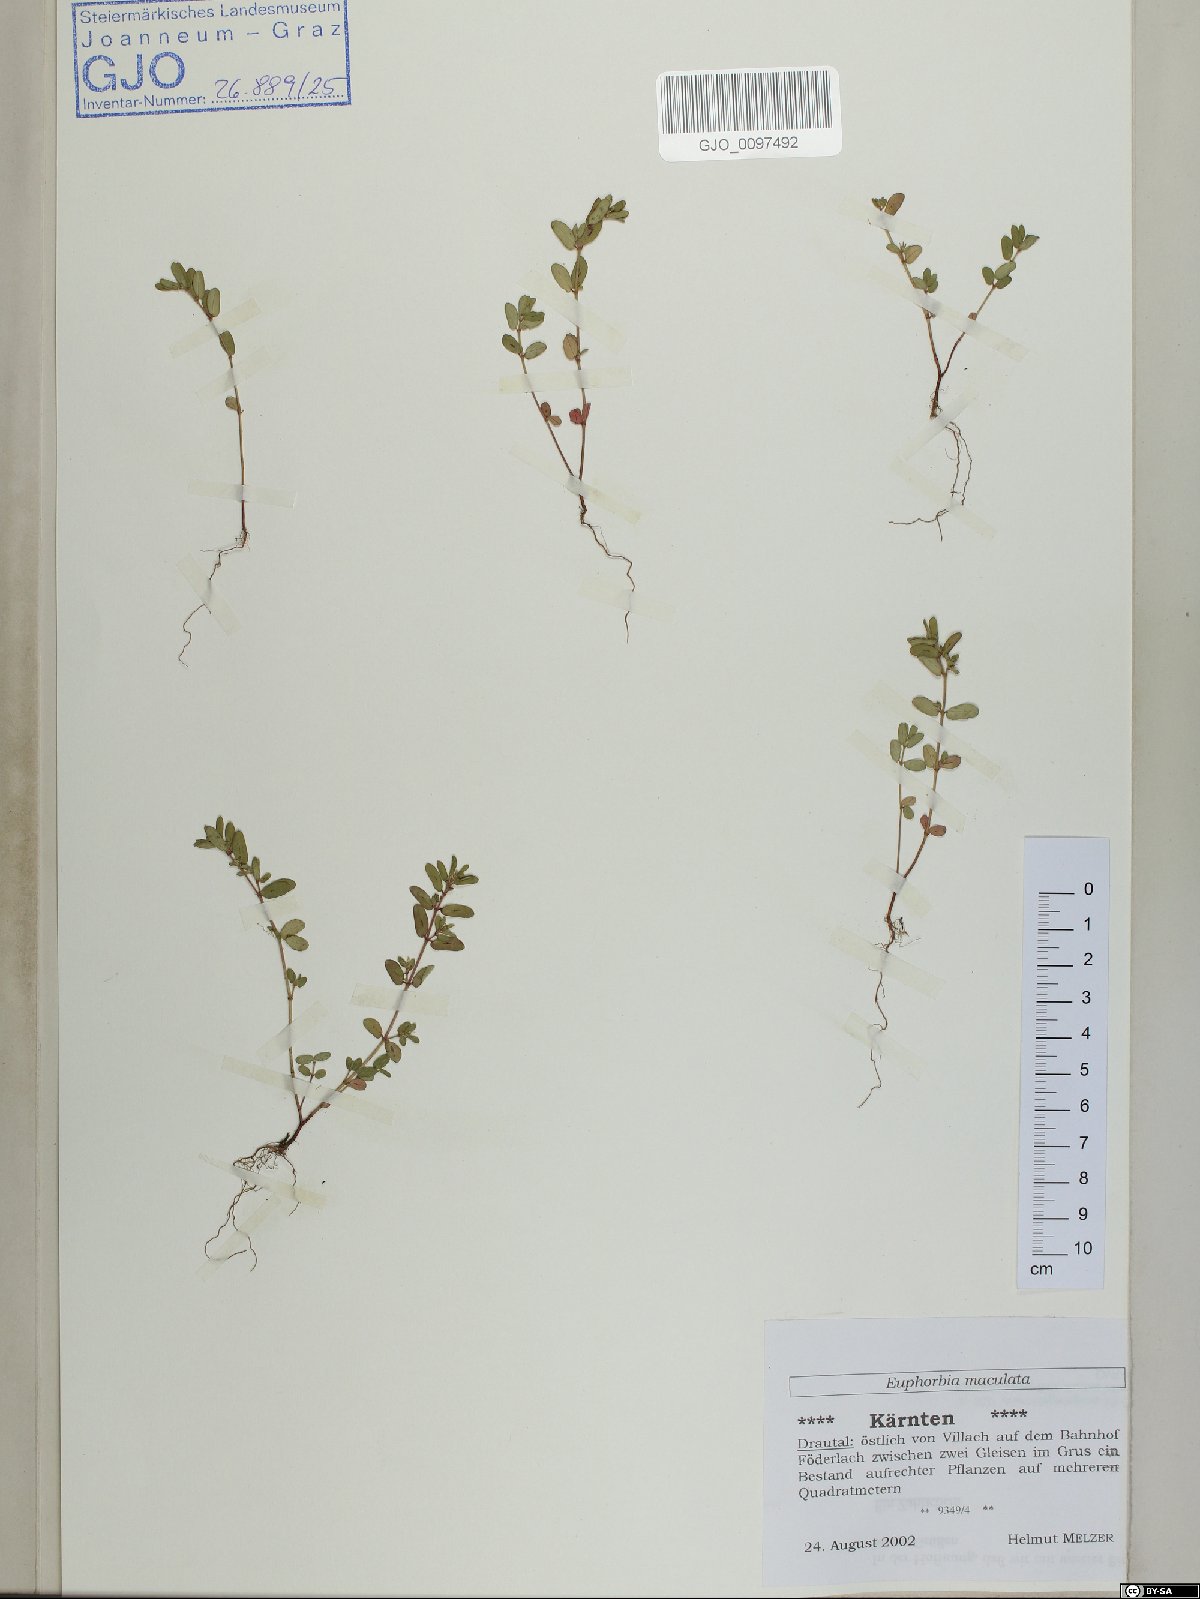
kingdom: Plantae
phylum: Tracheophyta
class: Magnoliopsida
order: Malpighiales
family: Euphorbiaceae
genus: Euphorbia
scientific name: Euphorbia maculata
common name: Spotted spurge
